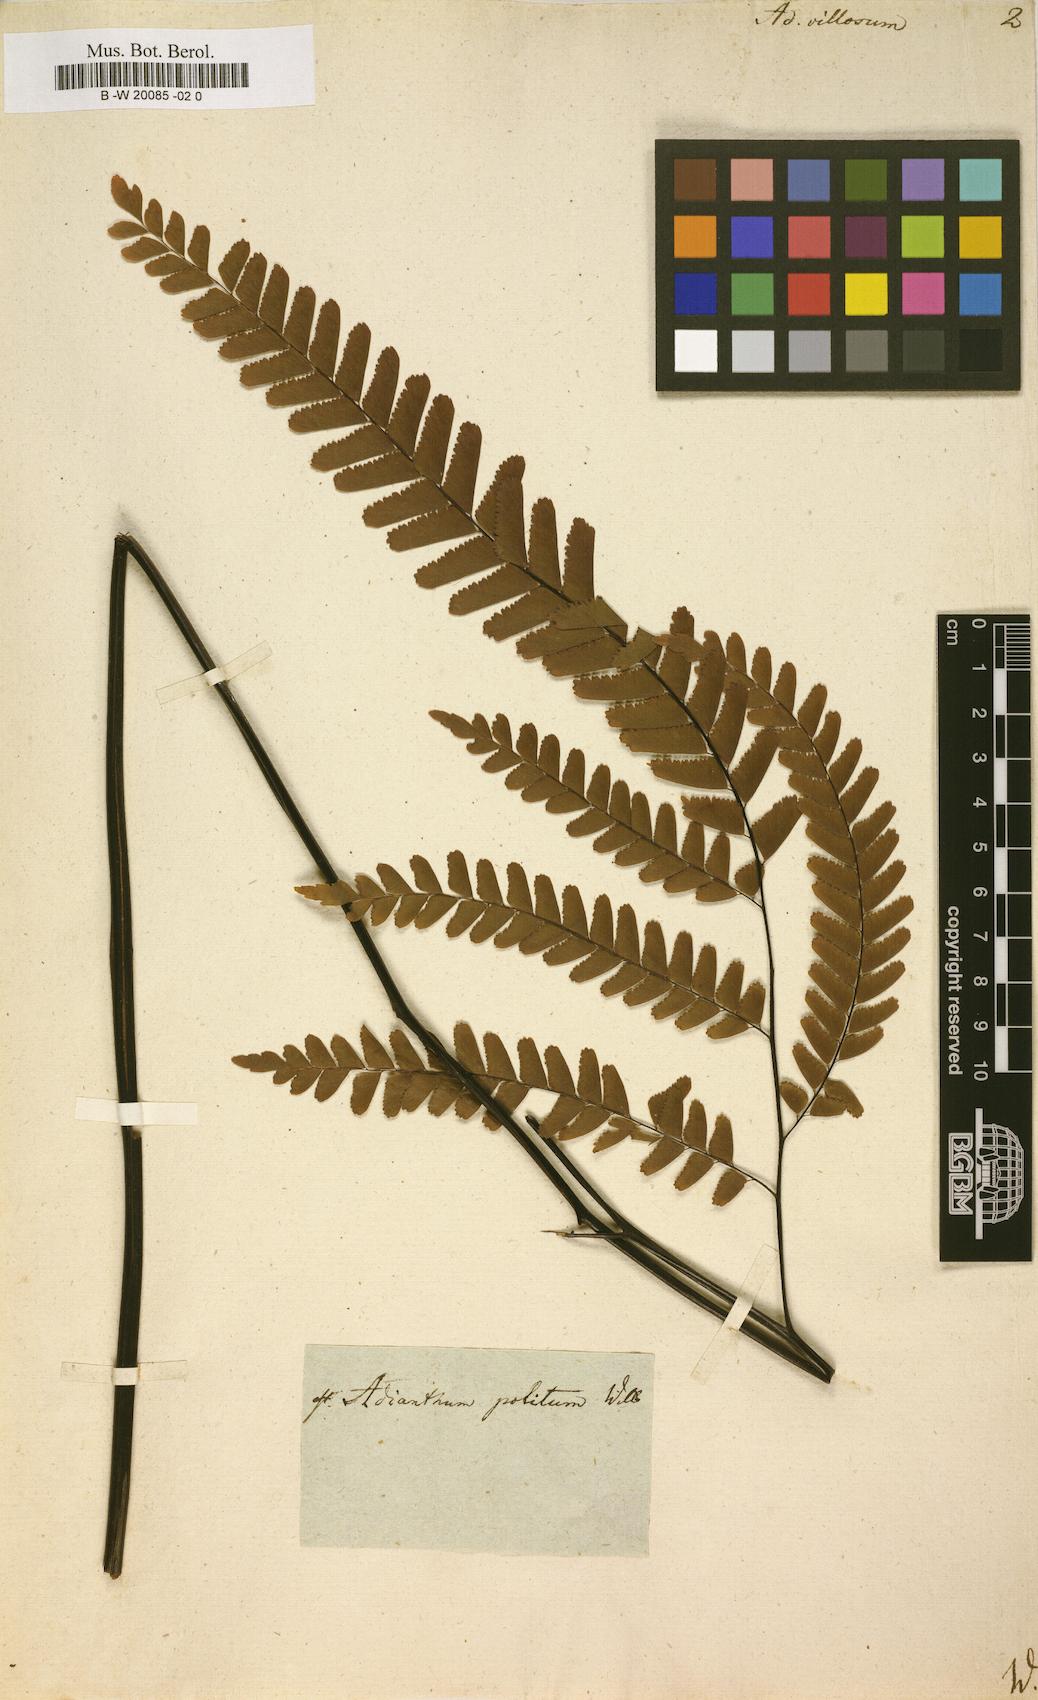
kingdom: Plantae
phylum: Tracheophyta
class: Polypodiopsida
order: Polypodiales
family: Pteridaceae
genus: Adiantum
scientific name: Adiantum villosum
